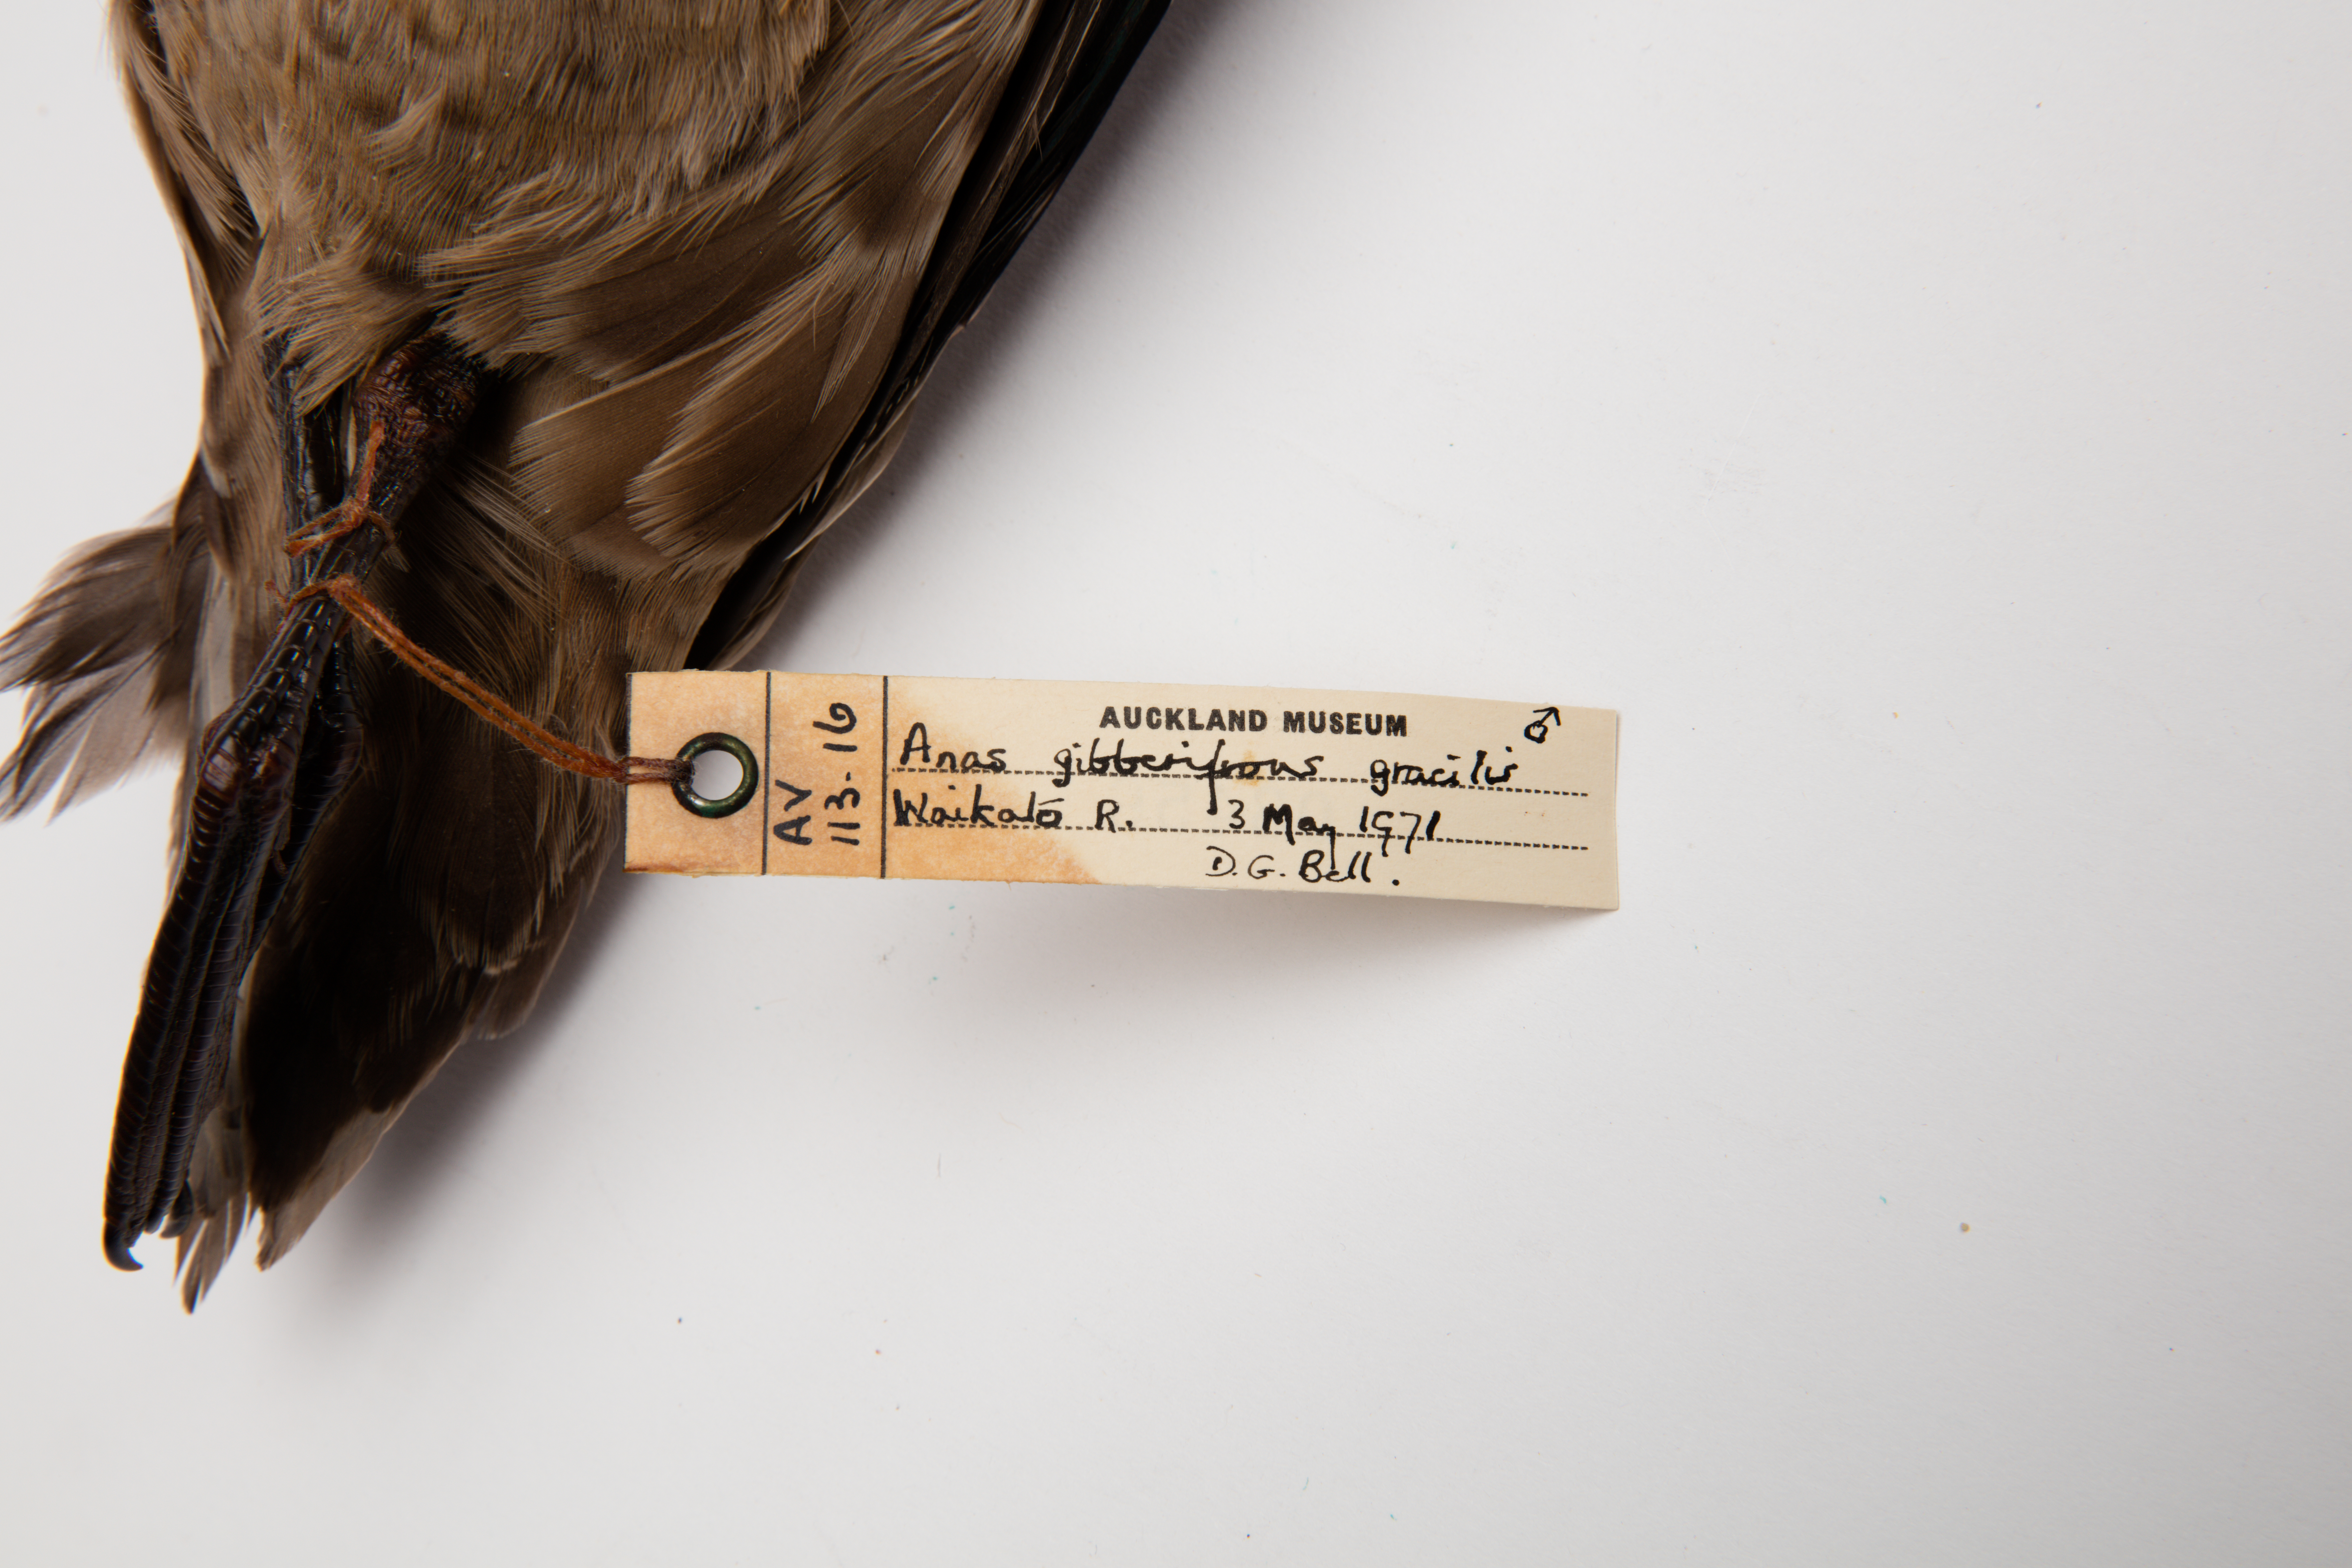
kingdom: Animalia
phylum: Chordata
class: Aves
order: Anseriformes
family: Anatidae
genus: Anas
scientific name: Anas gracilis
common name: Grey teal
